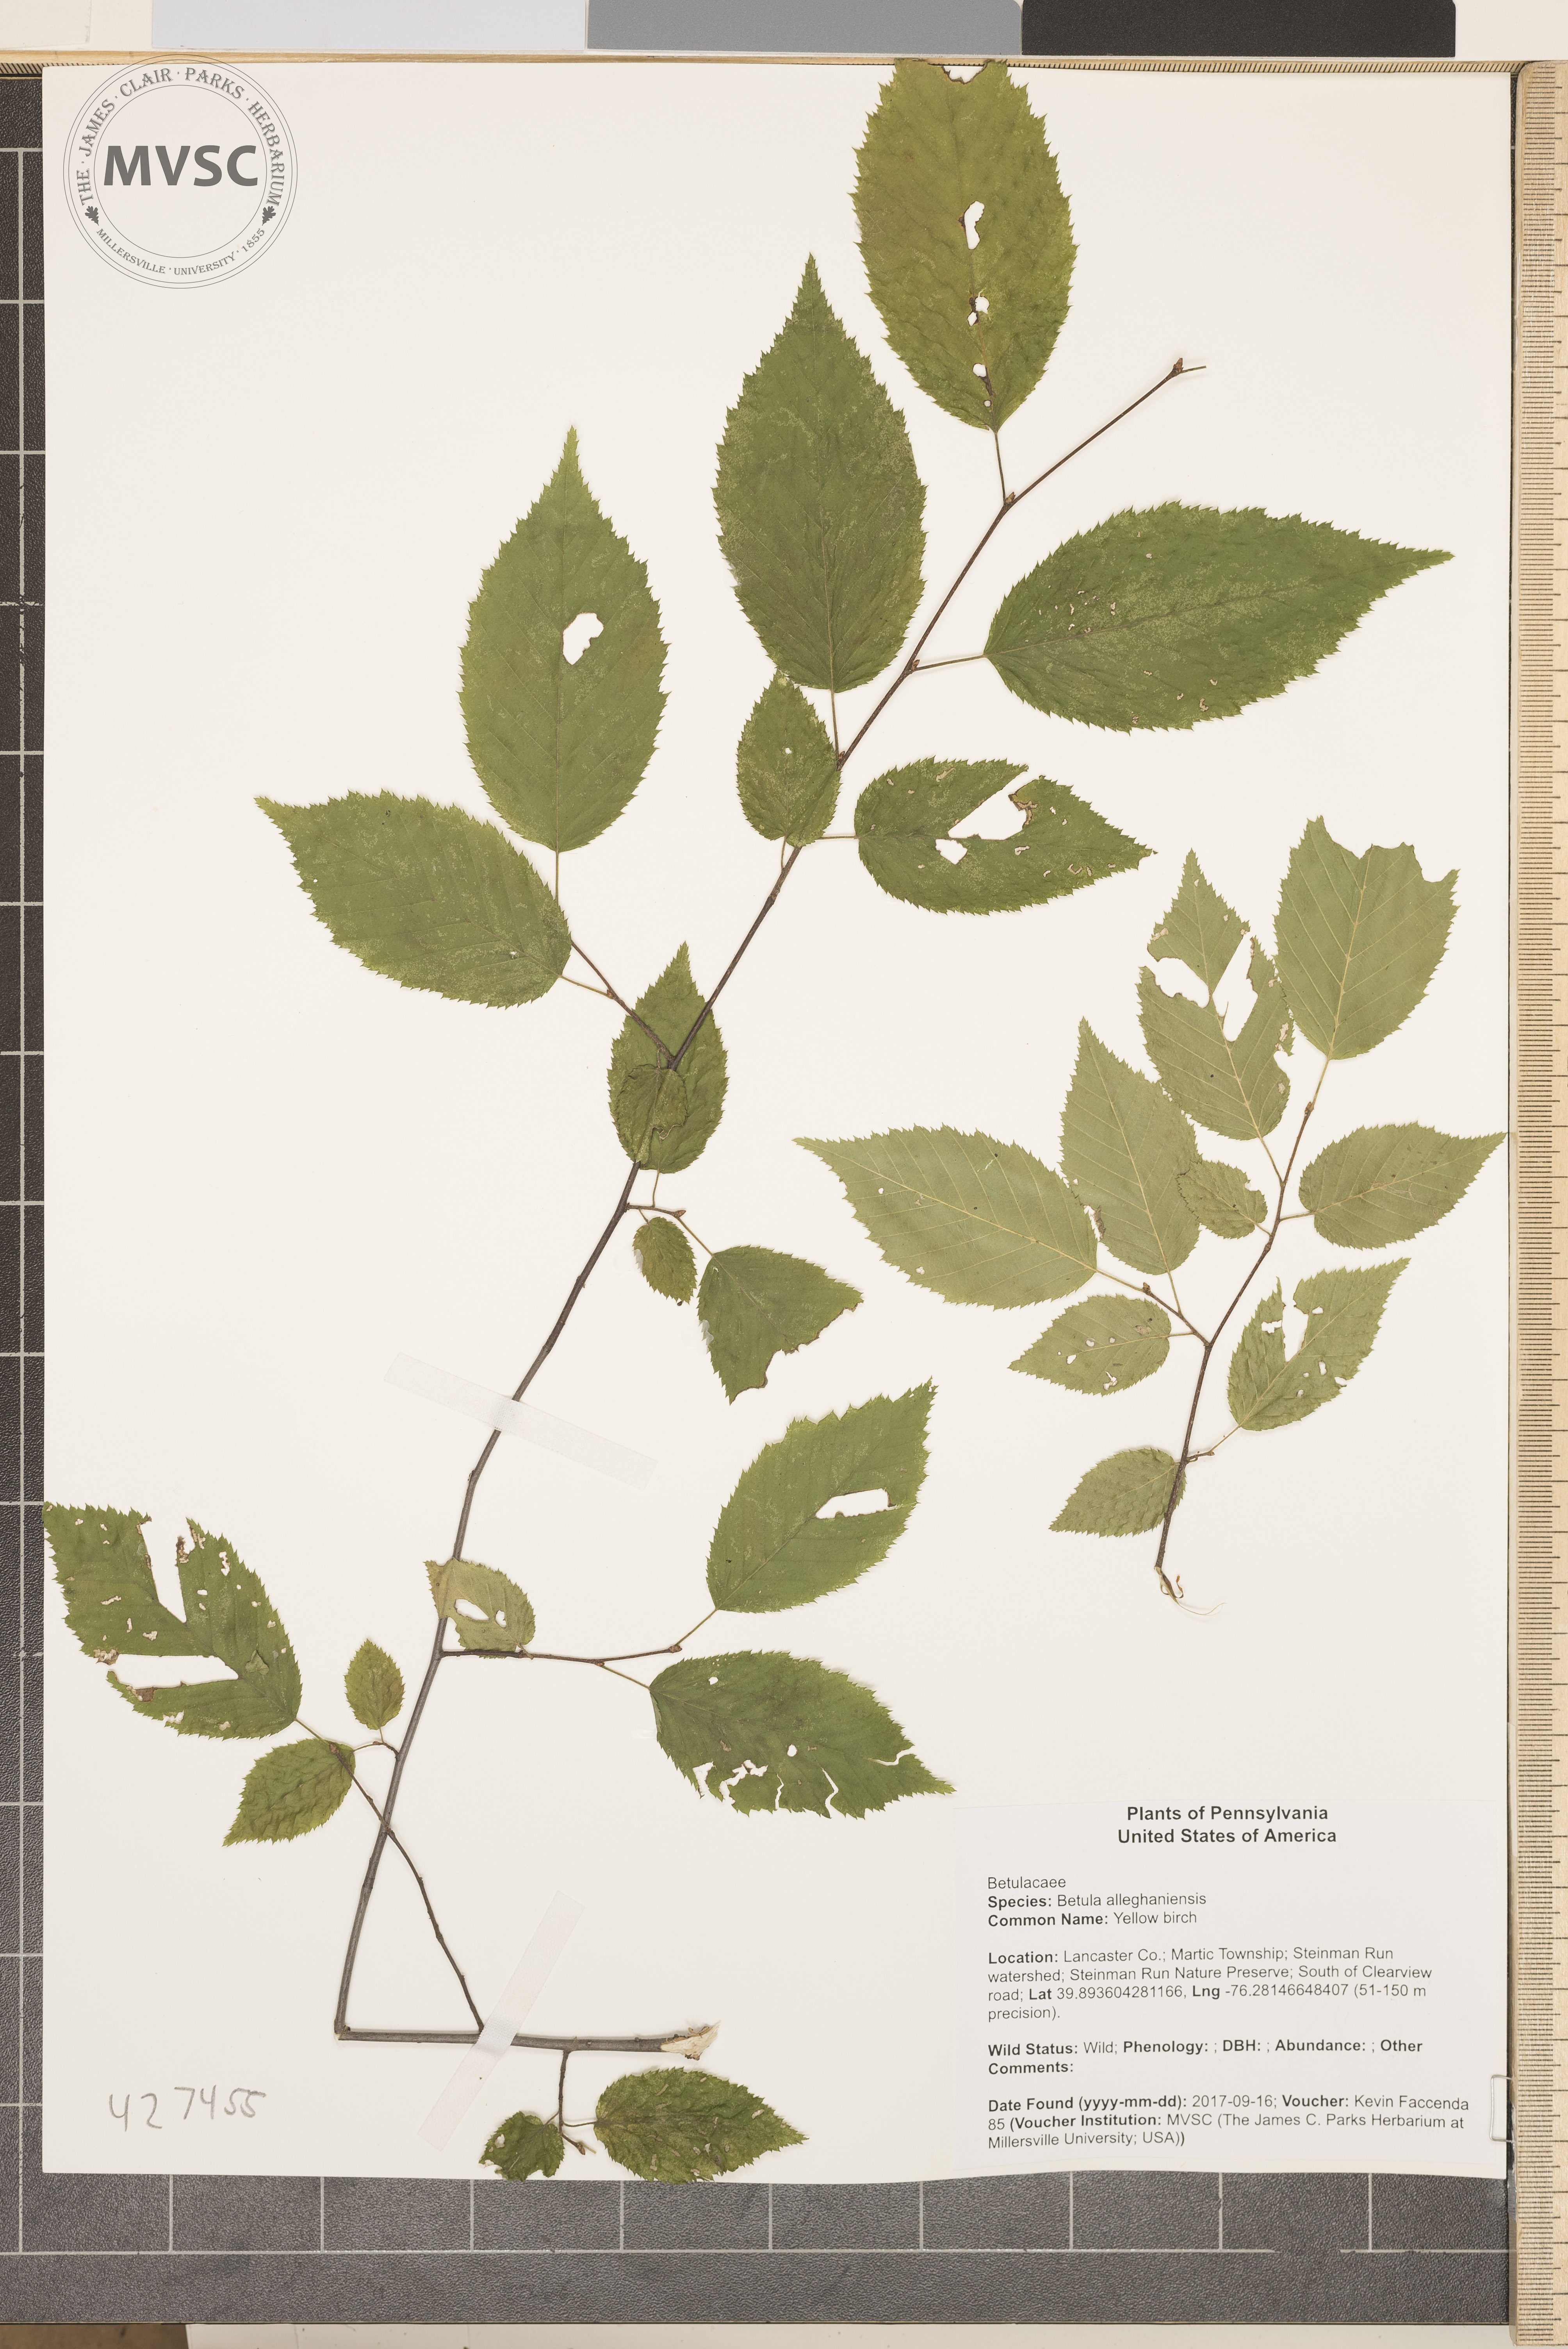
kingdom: Plantae
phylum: Tracheophyta
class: Magnoliopsida
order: Fagales
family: Betulaceae
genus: Betula
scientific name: Betula alleghaniensis
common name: Yellow birch
